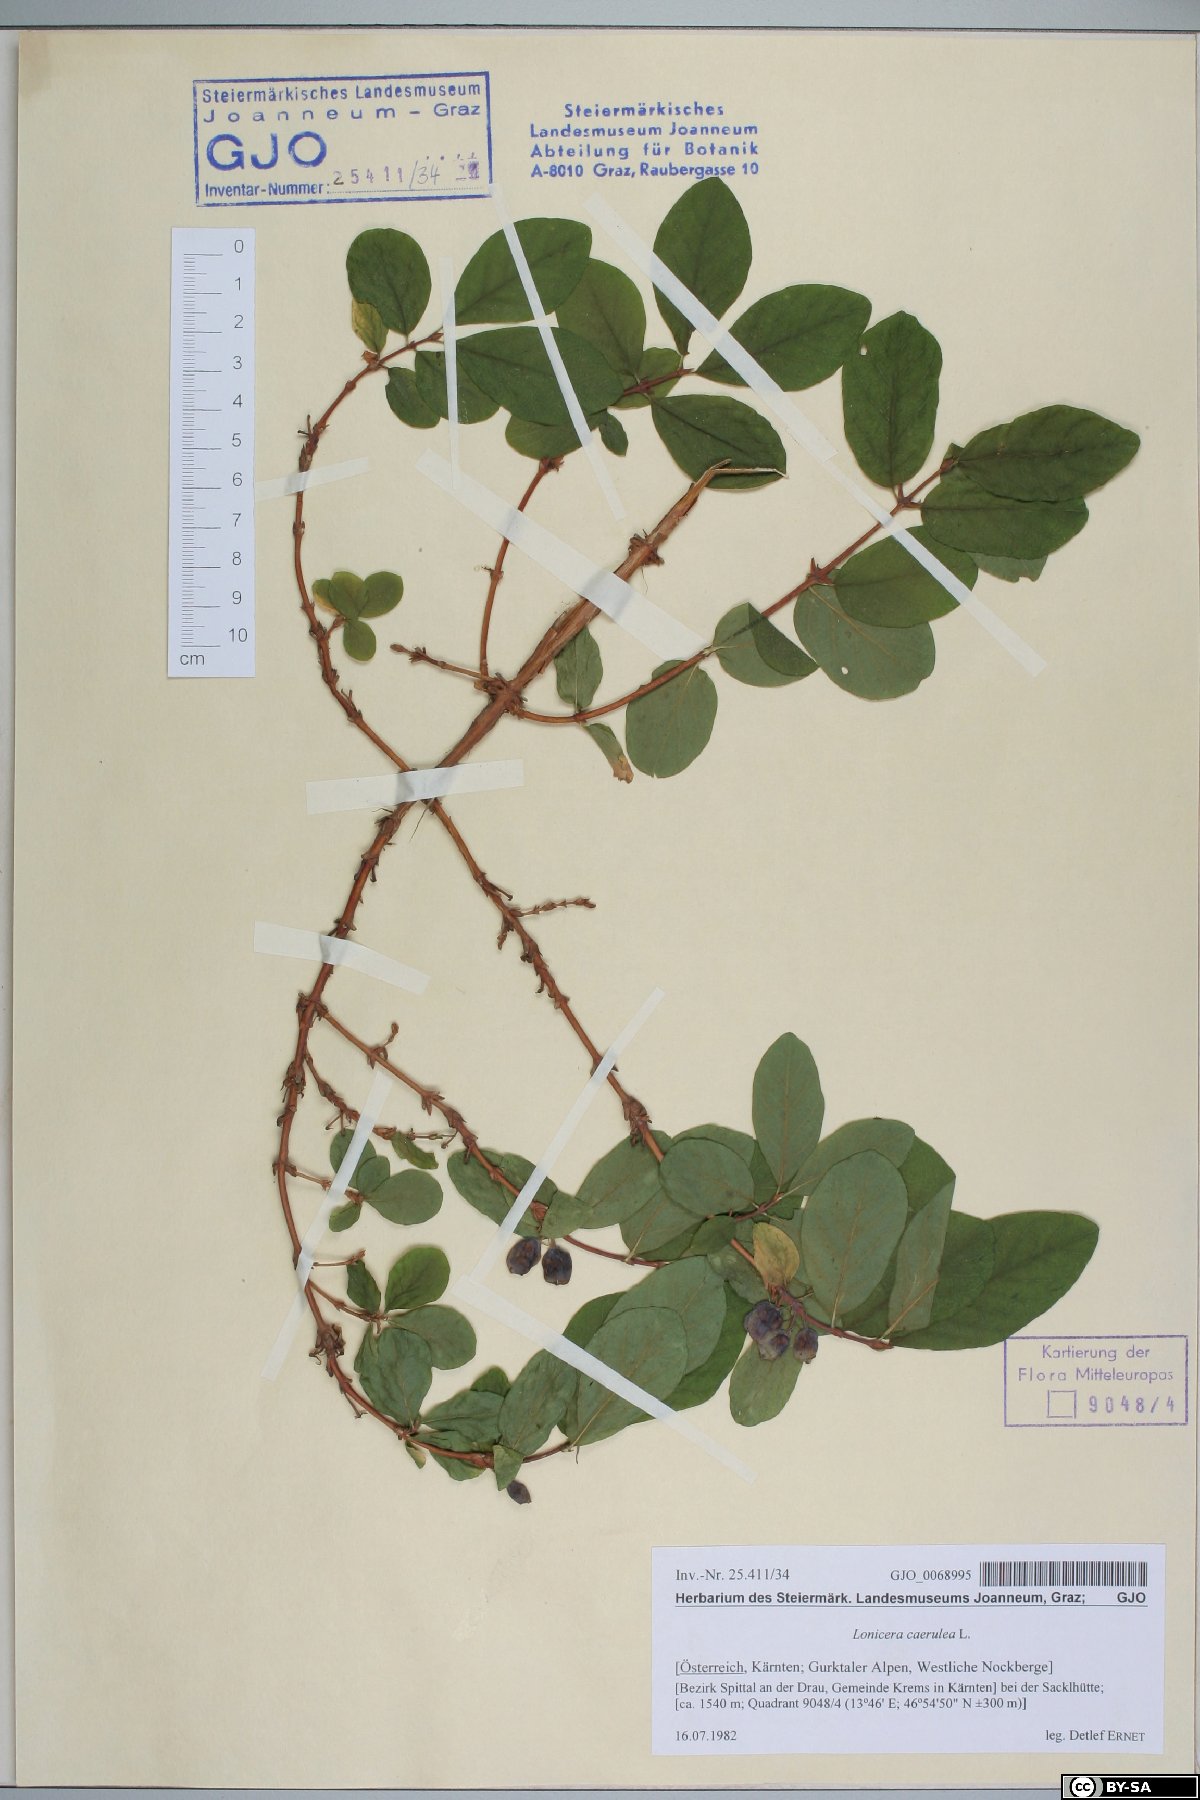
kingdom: Plantae
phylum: Tracheophyta
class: Magnoliopsida
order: Dipsacales
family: Caprifoliaceae
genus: Lonicera
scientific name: Lonicera caerulea
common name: Blue honeysuckle
